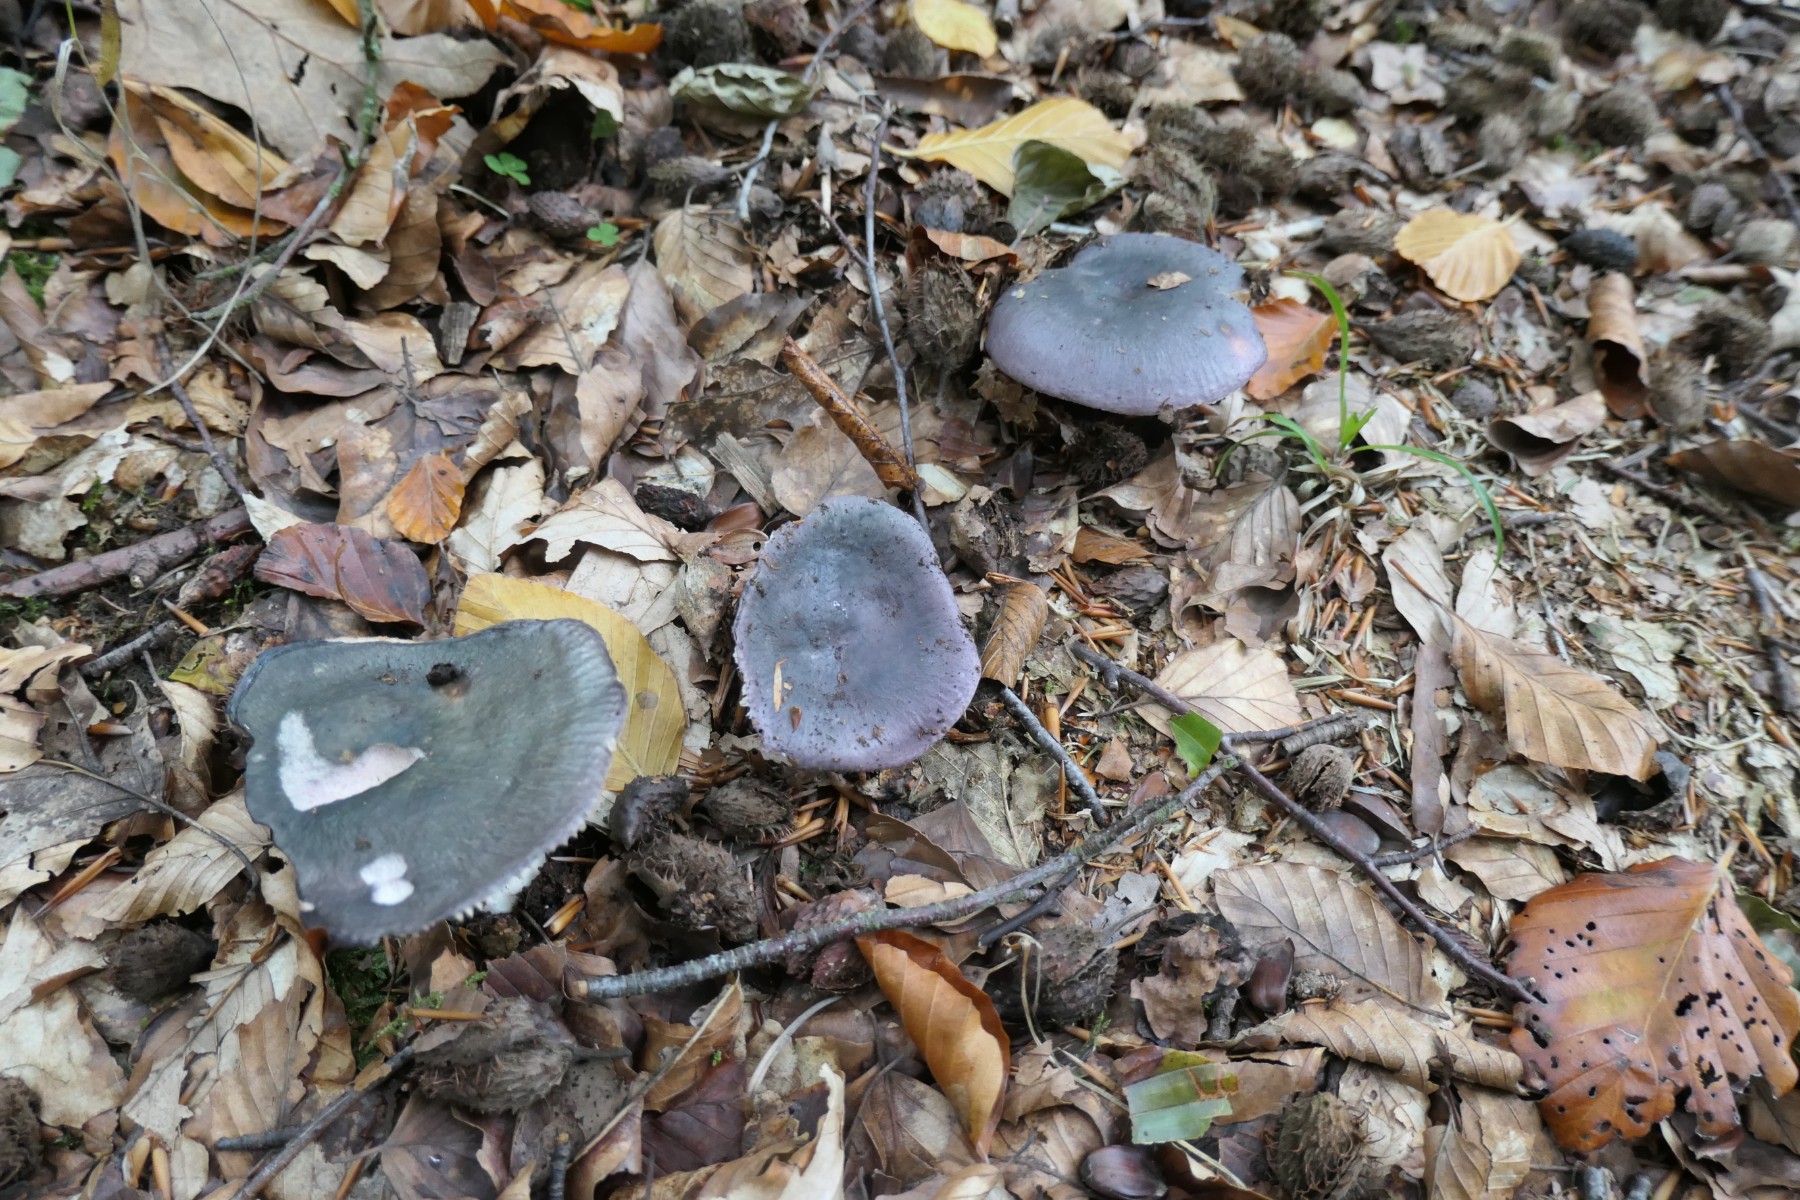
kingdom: Fungi
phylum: Basidiomycota
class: Agaricomycetes
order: Russulales
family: Russulaceae
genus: Russula
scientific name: Russula cyanoxantha
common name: broget skørhat
